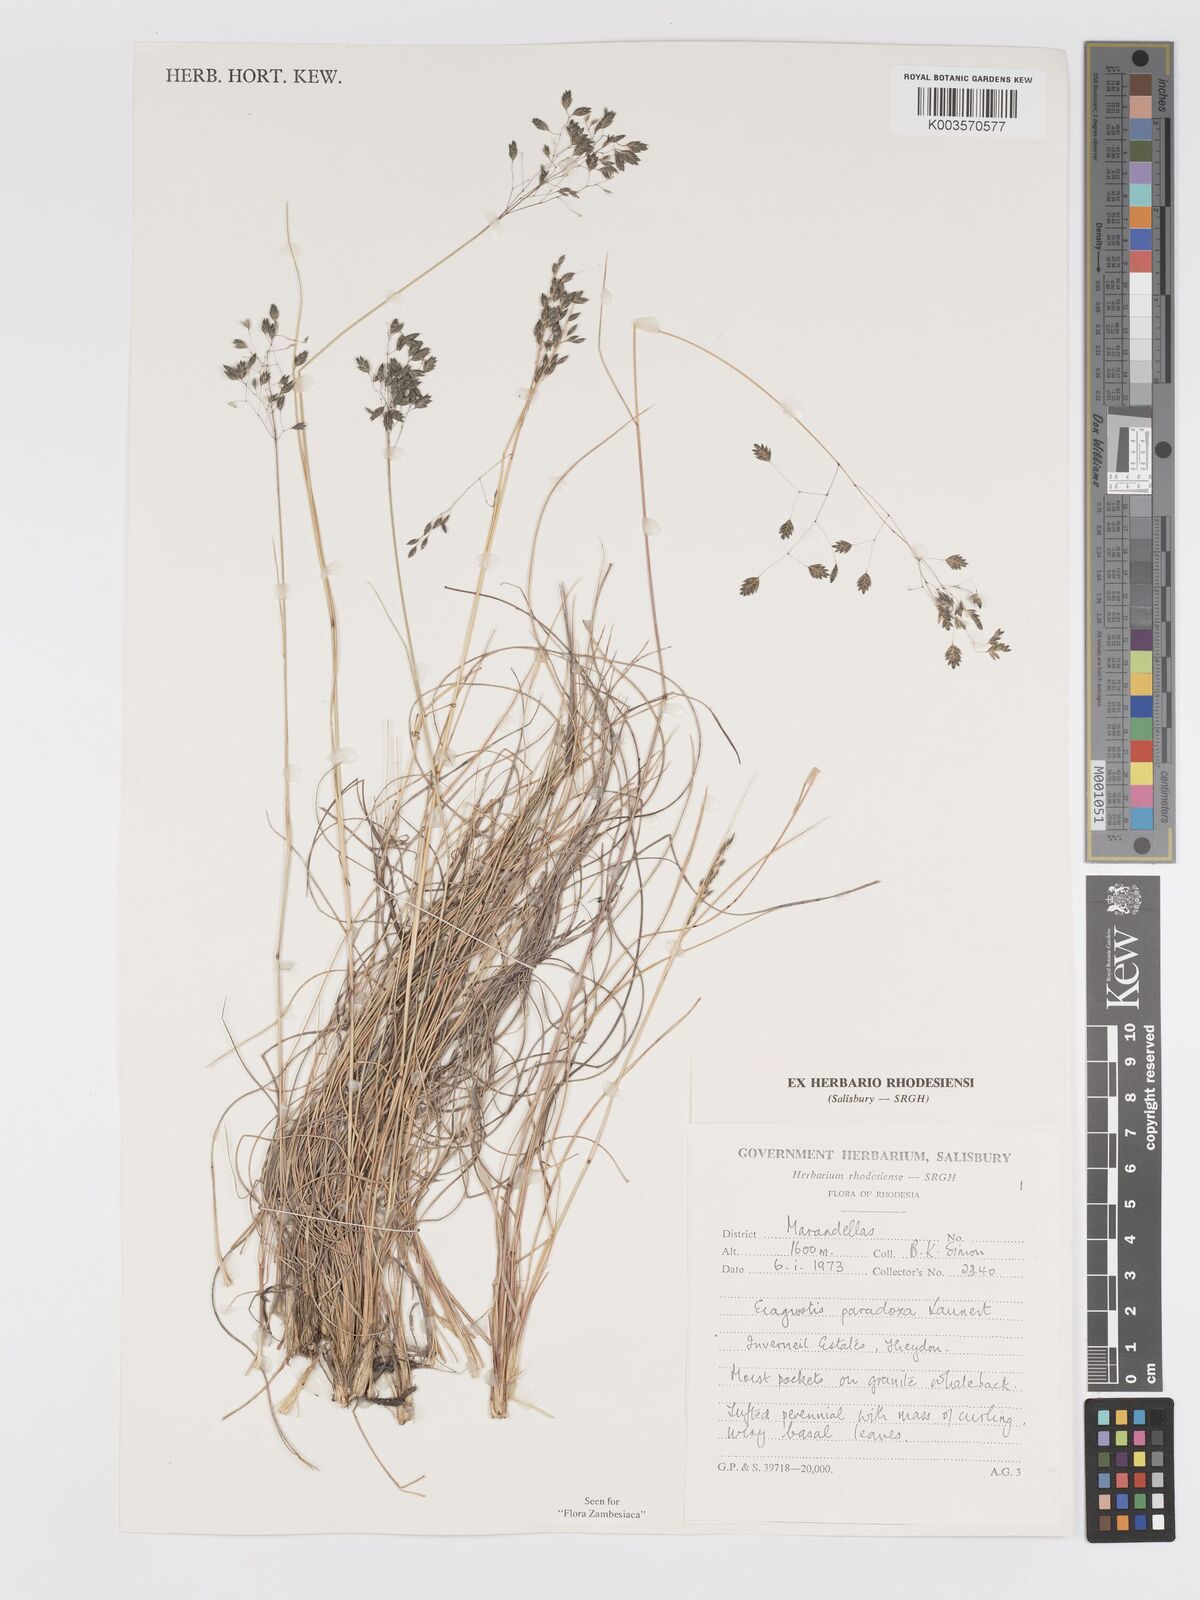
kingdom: Plantae
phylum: Tracheophyta
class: Liliopsida
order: Poales
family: Poaceae
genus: Eragrostis
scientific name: Eragrostis paradoxa
